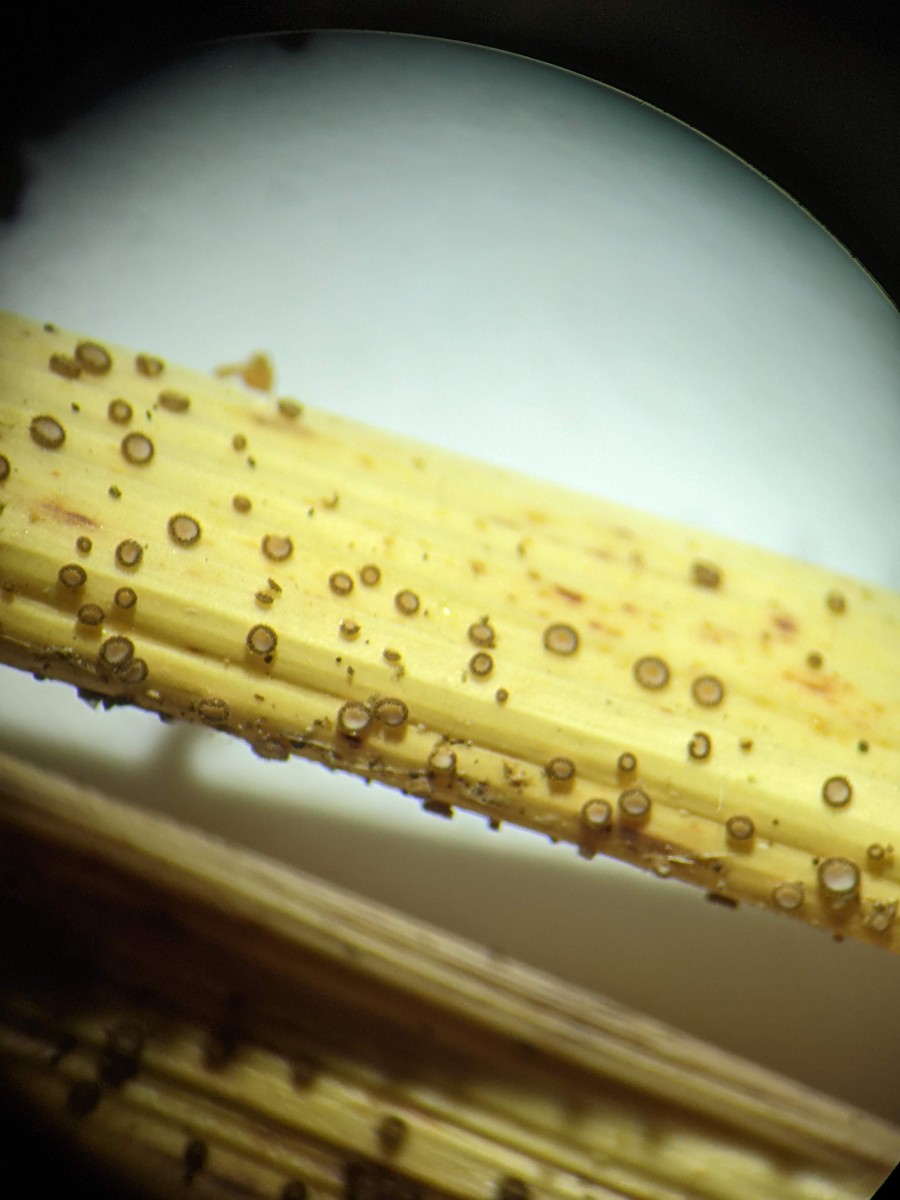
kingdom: Fungi
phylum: Ascomycota
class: Leotiomycetes
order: Helotiales
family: Solenopeziaceae
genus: Lasiobelonium
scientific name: Lasiobelonium nidulus
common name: rede-frynseskive
